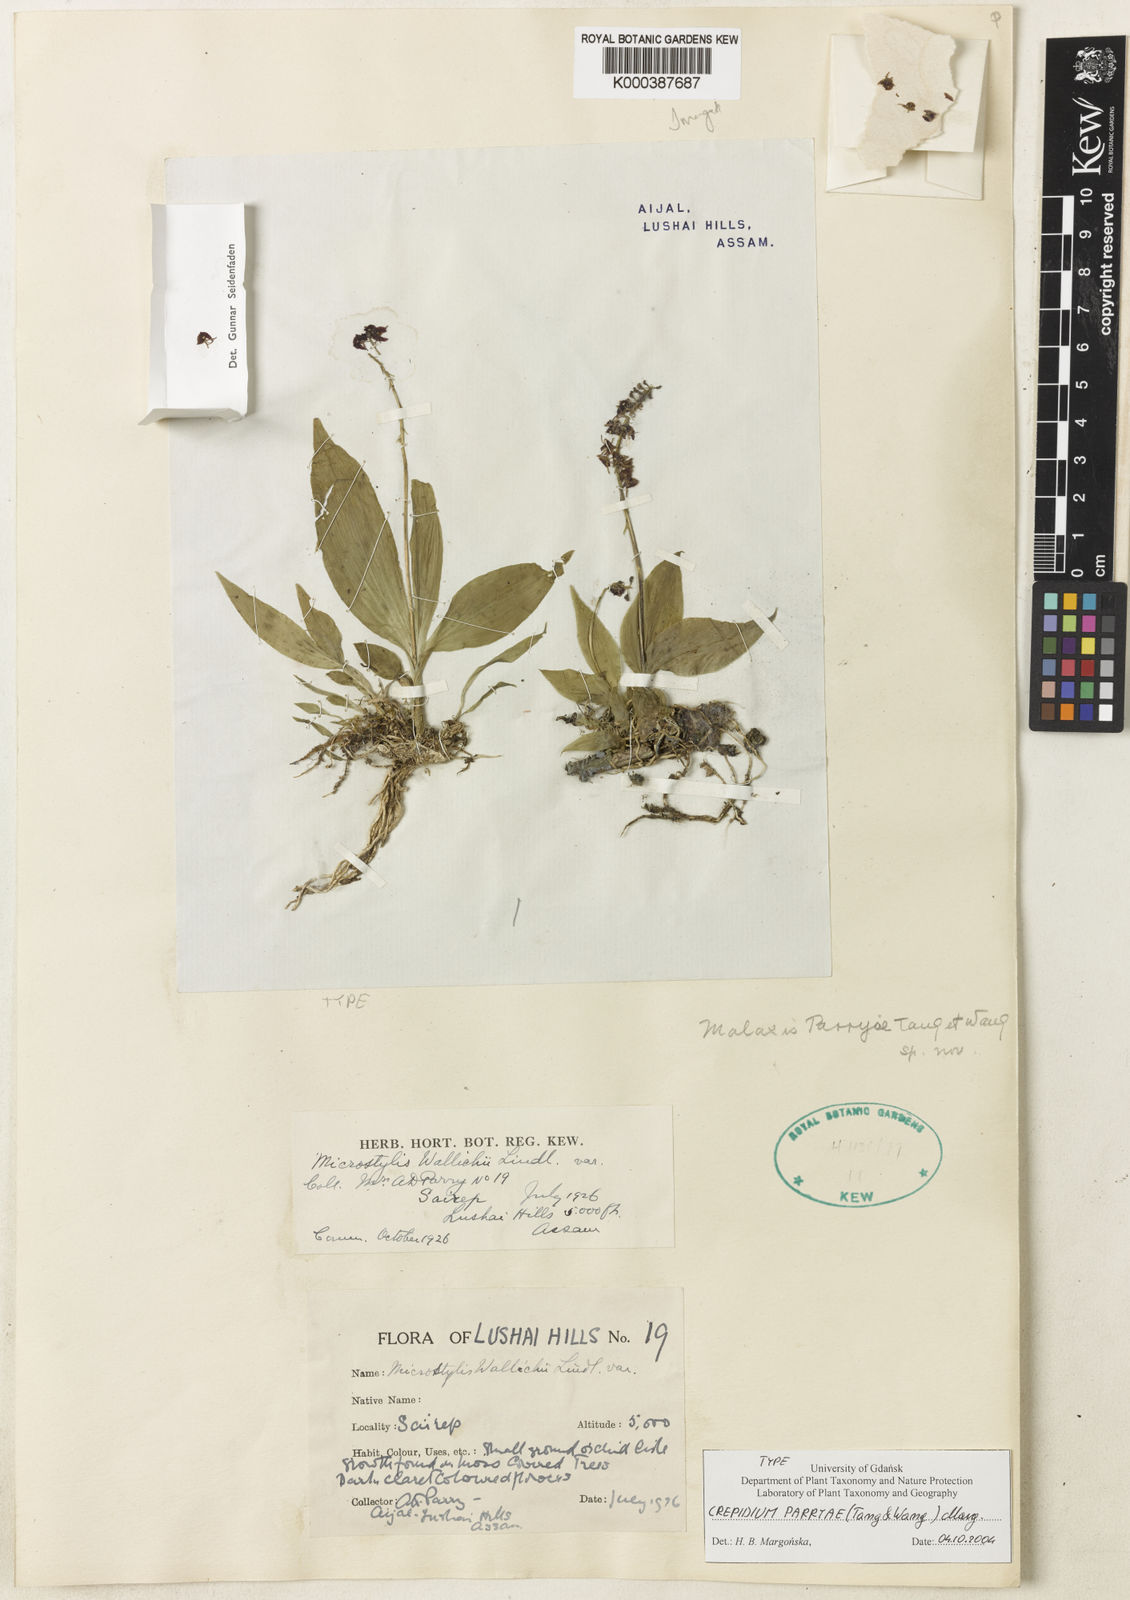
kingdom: Plantae
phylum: Tracheophyta
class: Liliopsida
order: Asparagales
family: Orchidaceae
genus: Crepidium
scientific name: Crepidium parryae
